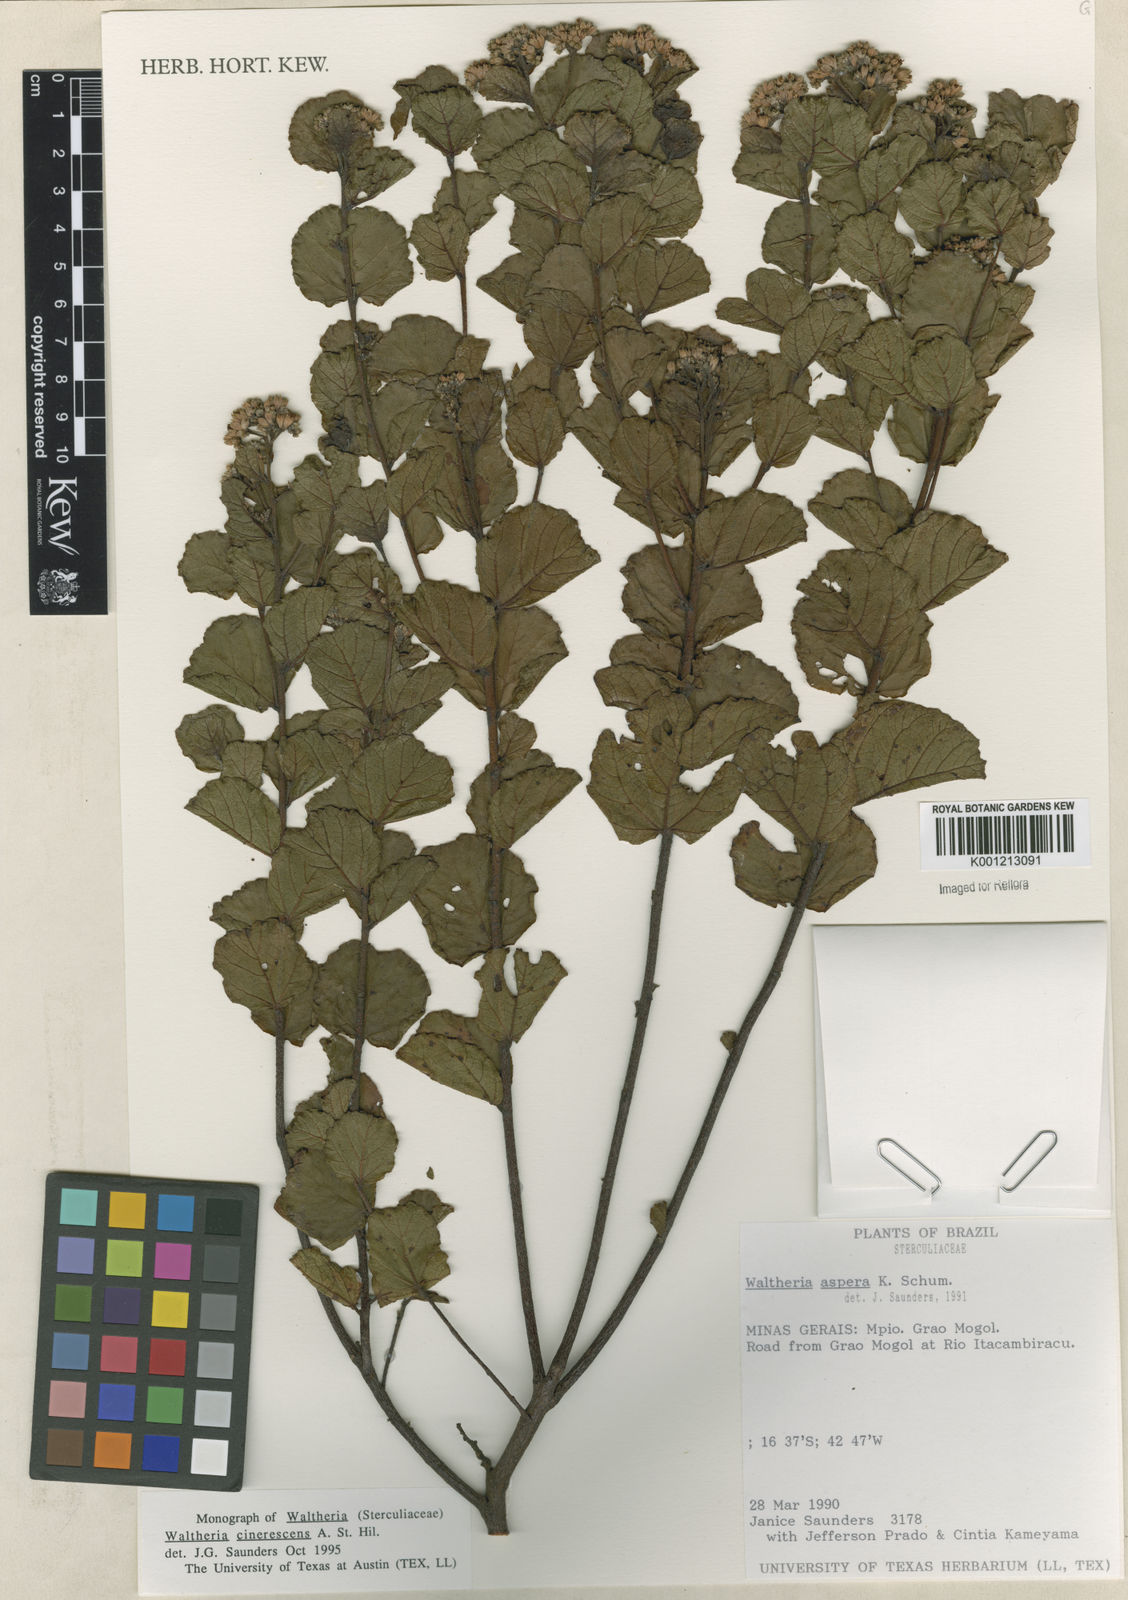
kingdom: Plantae
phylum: Tracheophyta
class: Magnoliopsida
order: Malvales
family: Malvaceae
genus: Waltheria
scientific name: Waltheria cinerescens
